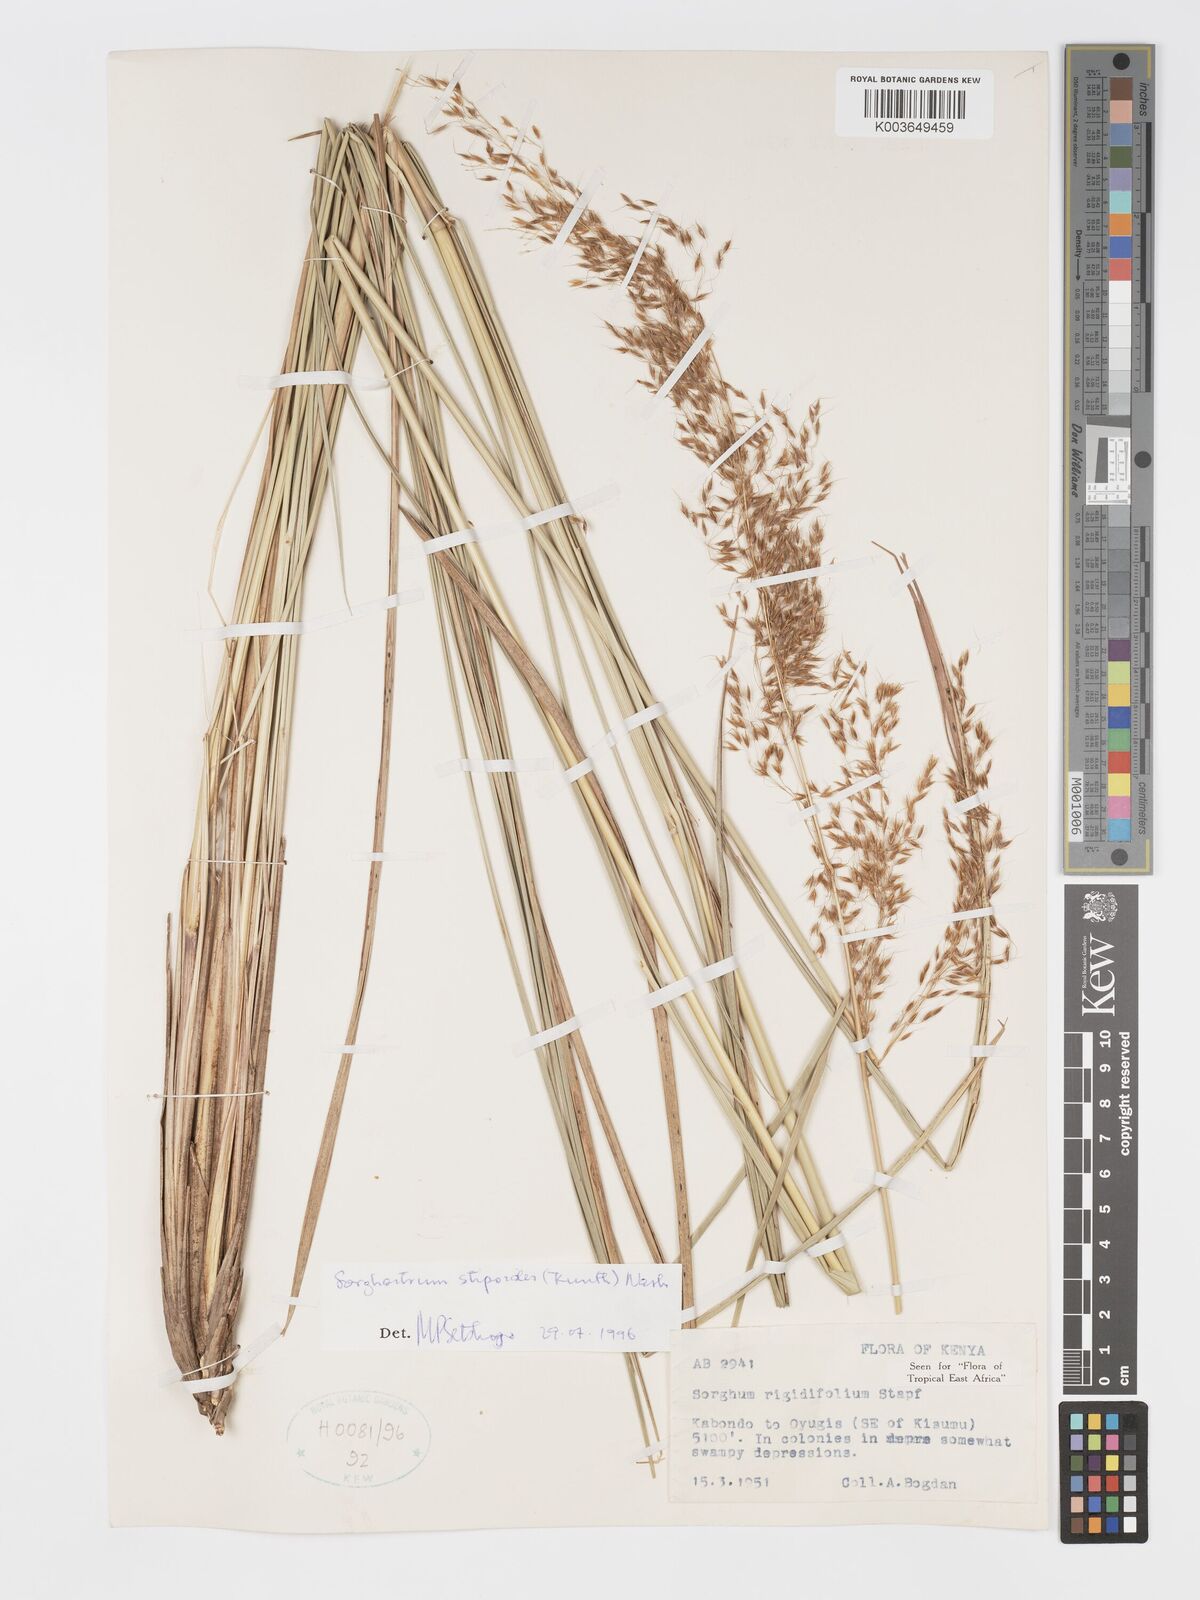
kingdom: Plantae
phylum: Tracheophyta
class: Liliopsida
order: Poales
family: Poaceae
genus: Sorghastrum
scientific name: Sorghastrum stipoides
